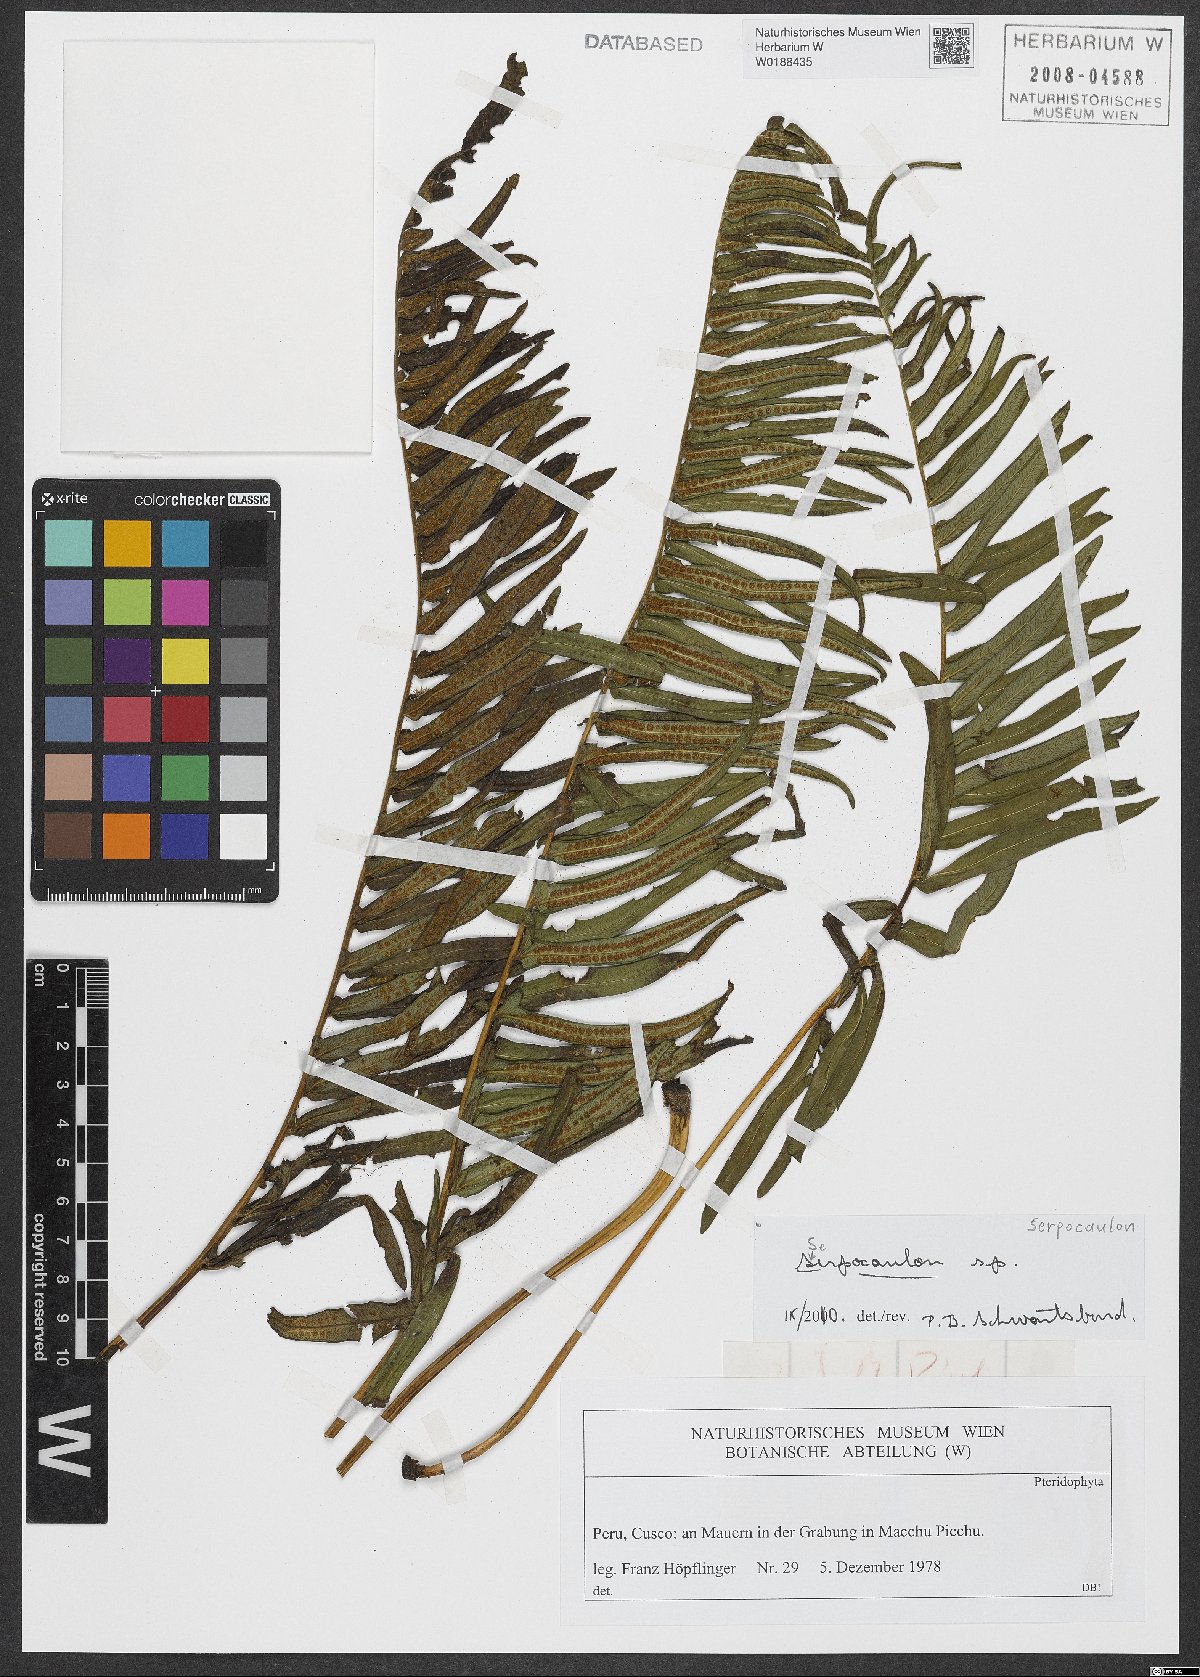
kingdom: Plantae
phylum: Tracheophyta
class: Polypodiopsida
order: Polypodiales
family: Polypodiaceae
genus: Serpocaulon
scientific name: Serpocaulon
